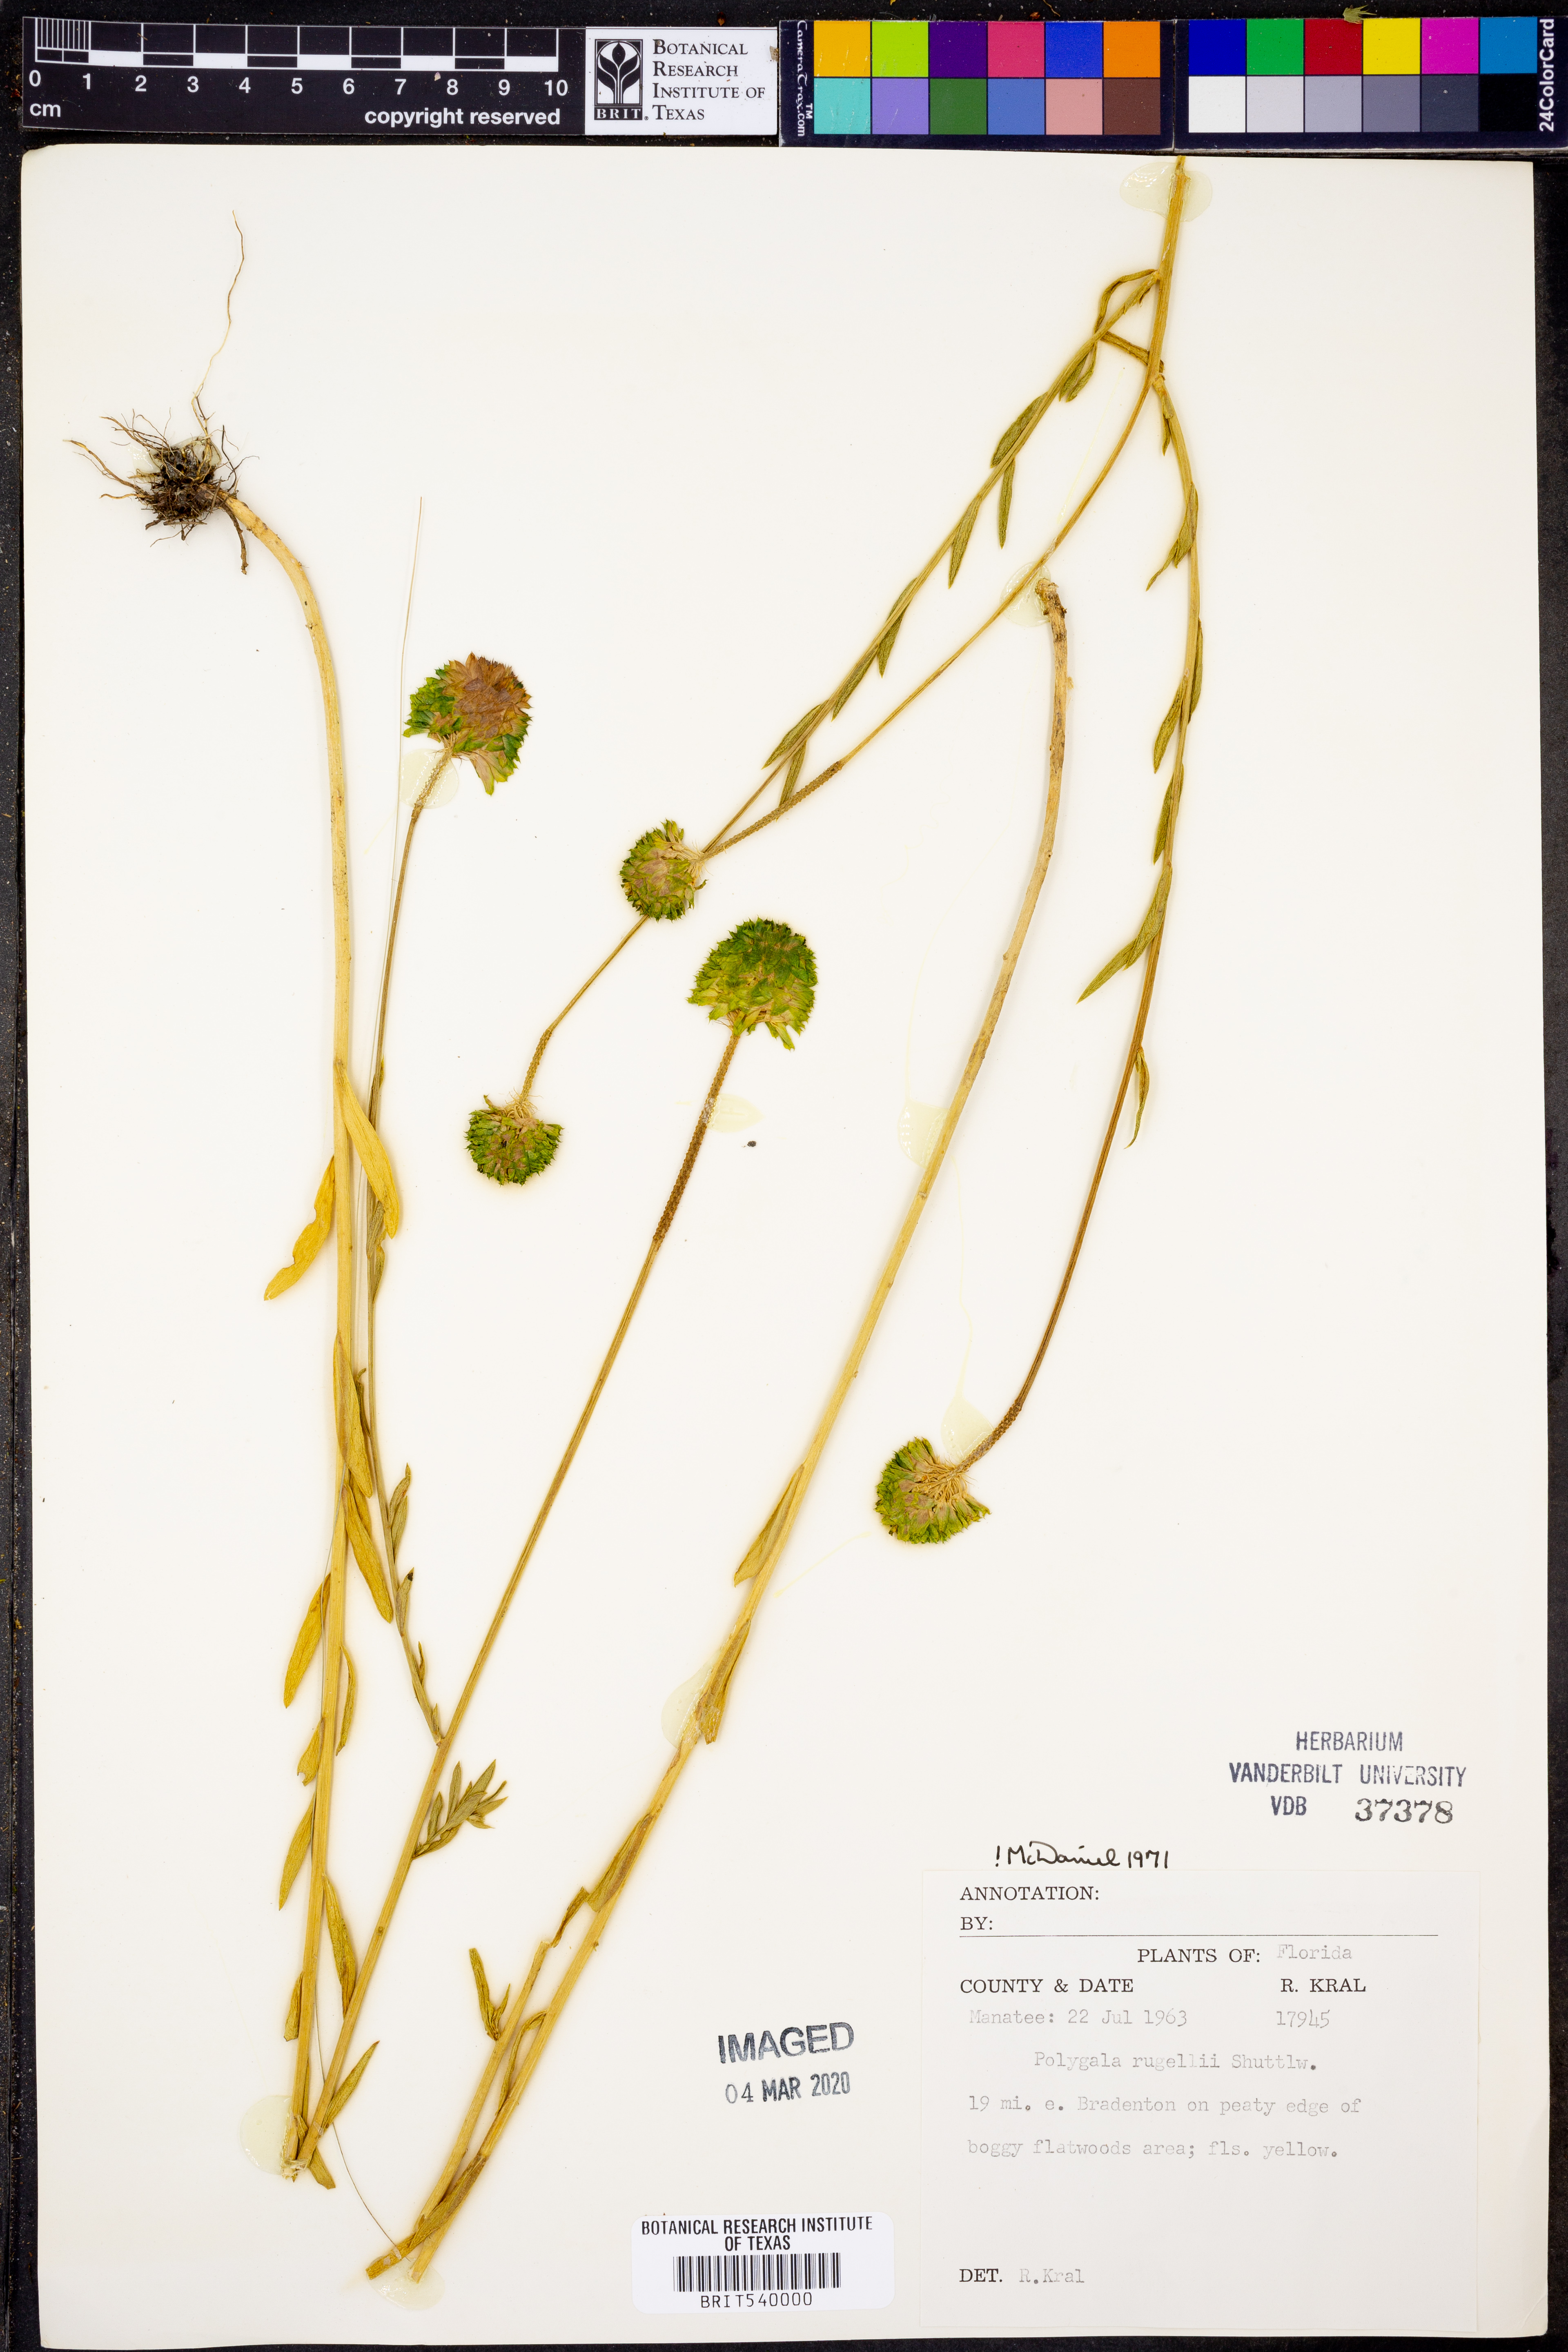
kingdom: Plantae
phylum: Tracheophyta
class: Magnoliopsida
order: Fabales
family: Polygalaceae
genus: Polygala
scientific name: Polygala rugelii
